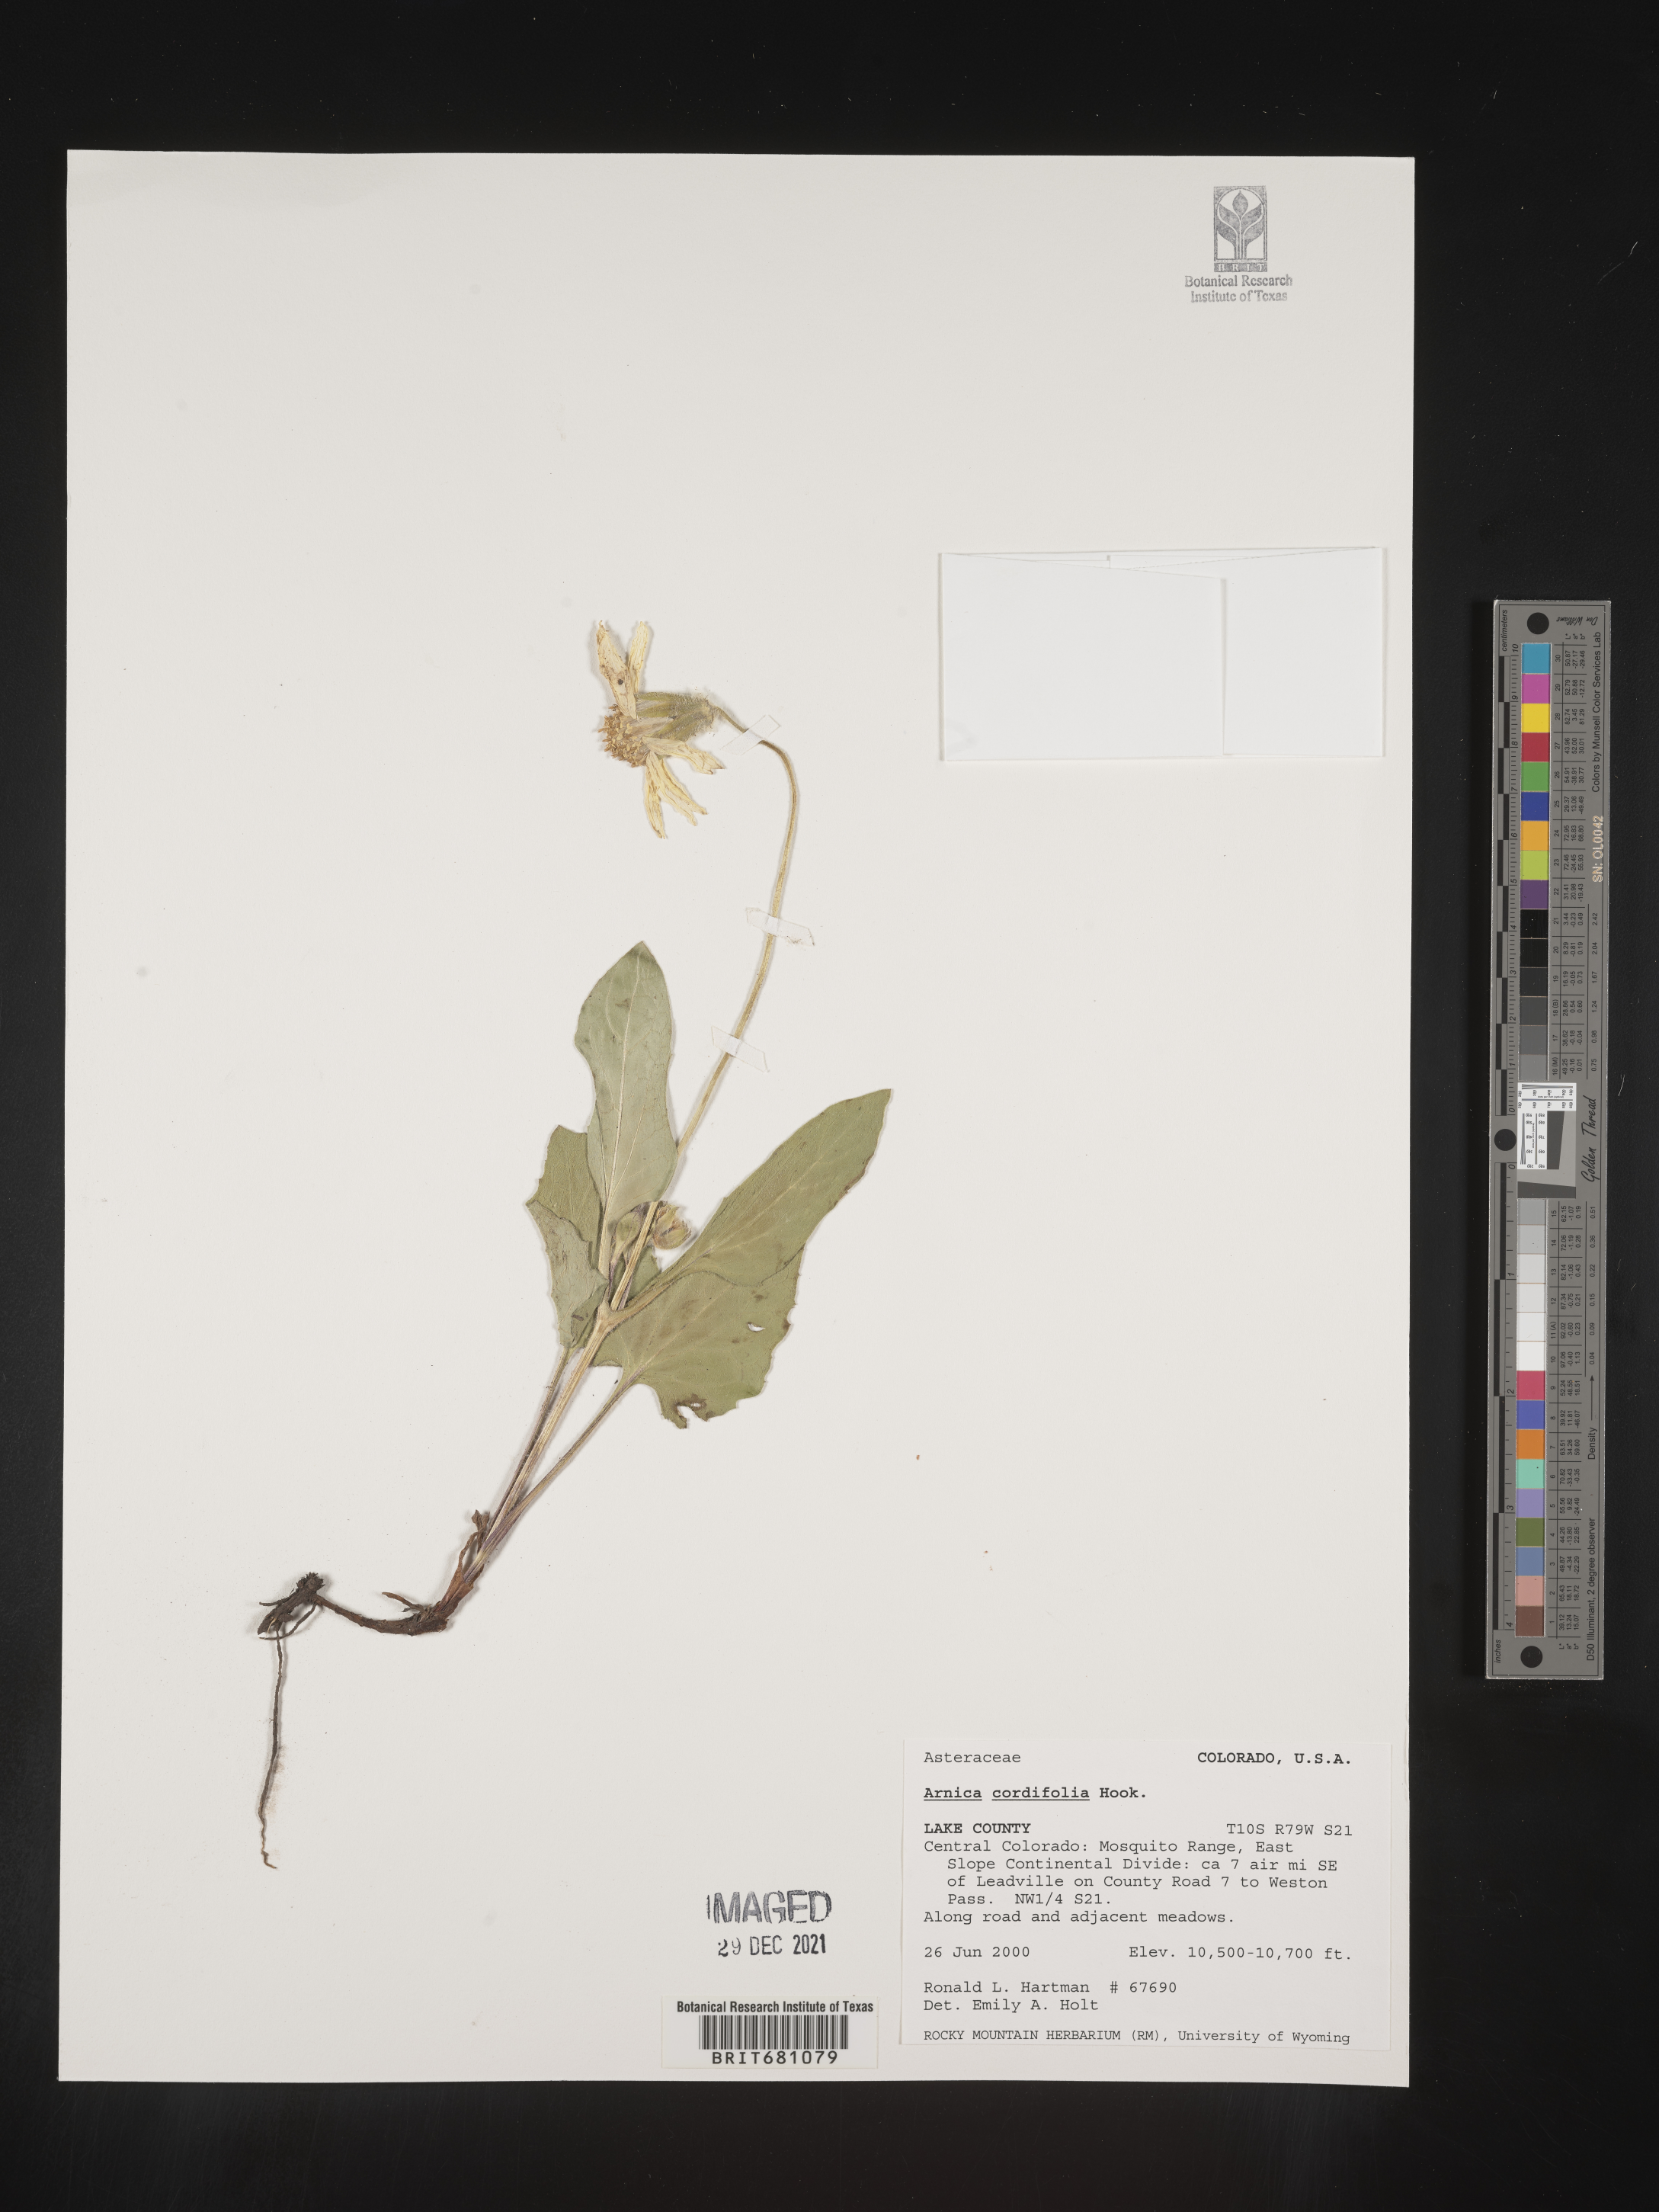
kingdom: Plantae
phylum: Tracheophyta
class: Magnoliopsida
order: Asterales
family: Asteraceae
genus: Arnica
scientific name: Arnica cordifolia
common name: Heart-leaf arnica
